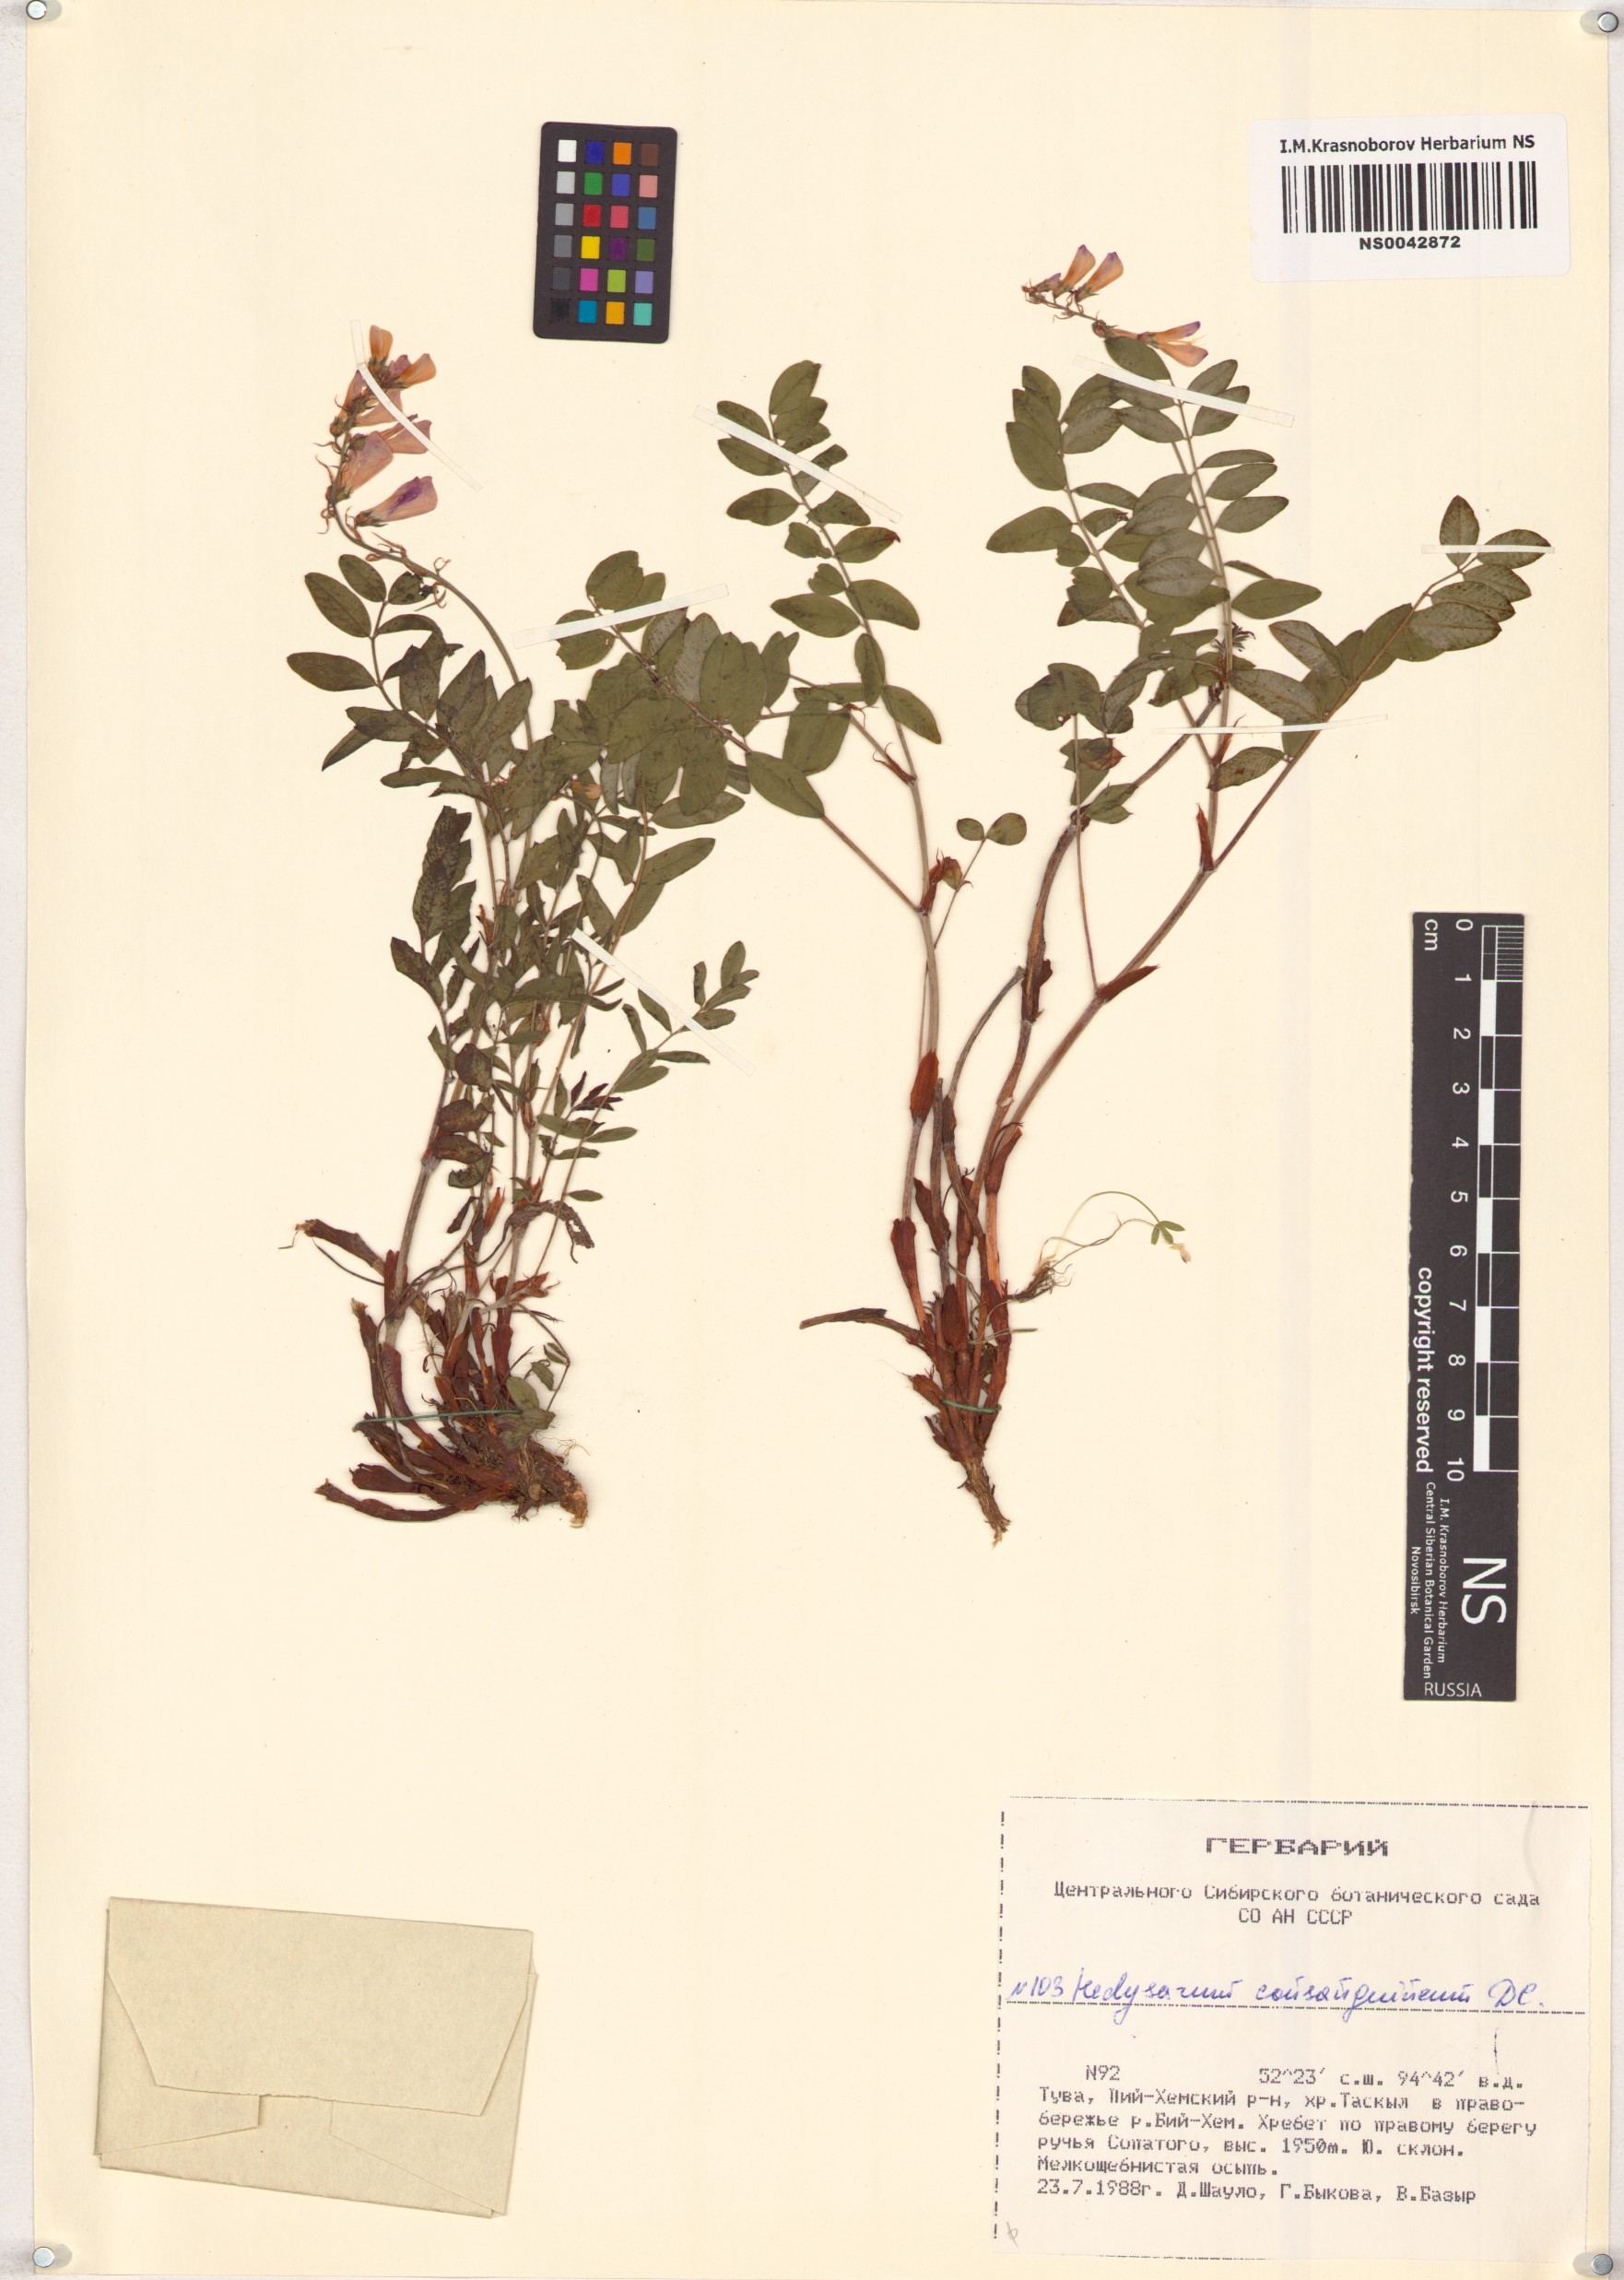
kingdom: Plantae
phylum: Tracheophyta
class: Magnoliopsida
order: Fabales
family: Fabaceae
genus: Hedysarum
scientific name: Hedysarum consanguineum
